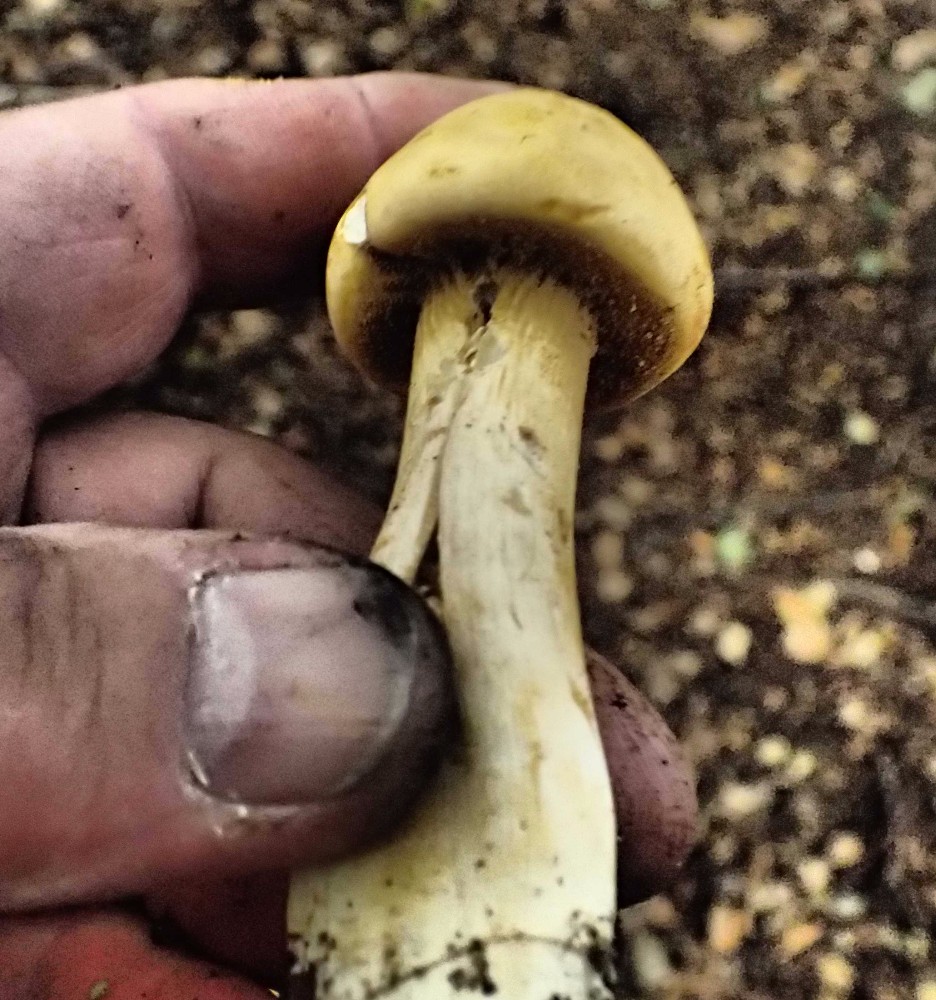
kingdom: Fungi
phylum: Basidiomycota
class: Agaricomycetes
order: Agaricales
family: Tricholomataceae
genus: Phaeolepiota
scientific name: Phaeolepiota aurea
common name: gyldenhat
